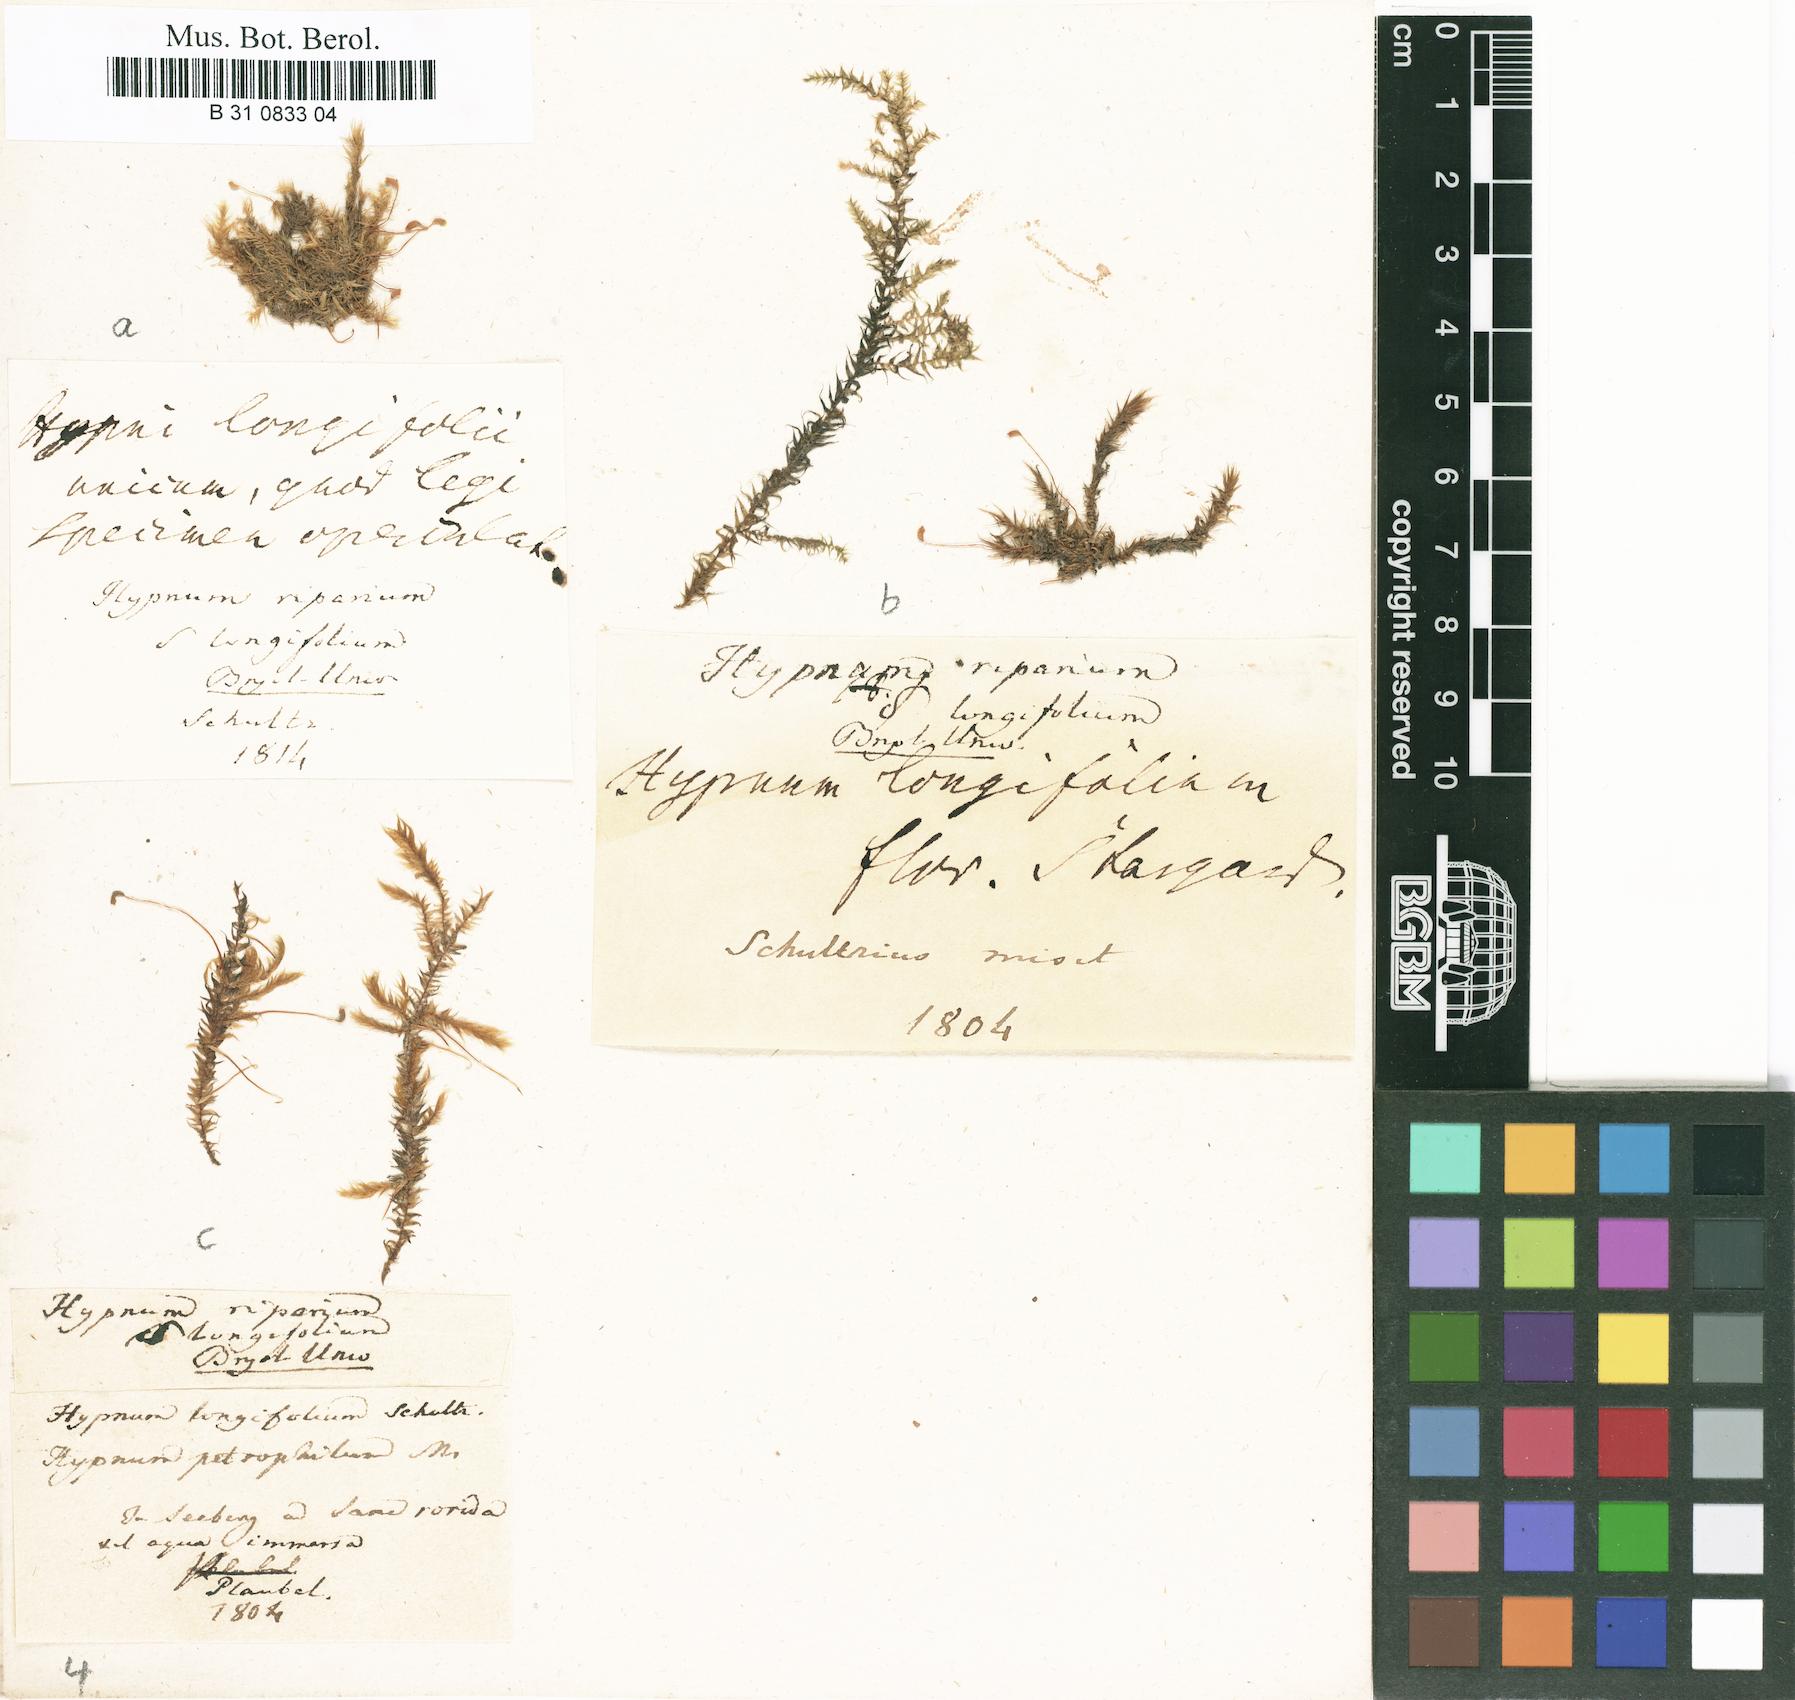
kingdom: Plantae
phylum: Bryophyta
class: Bryopsida
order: Hypnales
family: Amblystegiaceae
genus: Leptodictyum
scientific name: Leptodictyum riparium
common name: Riparian feather moss
